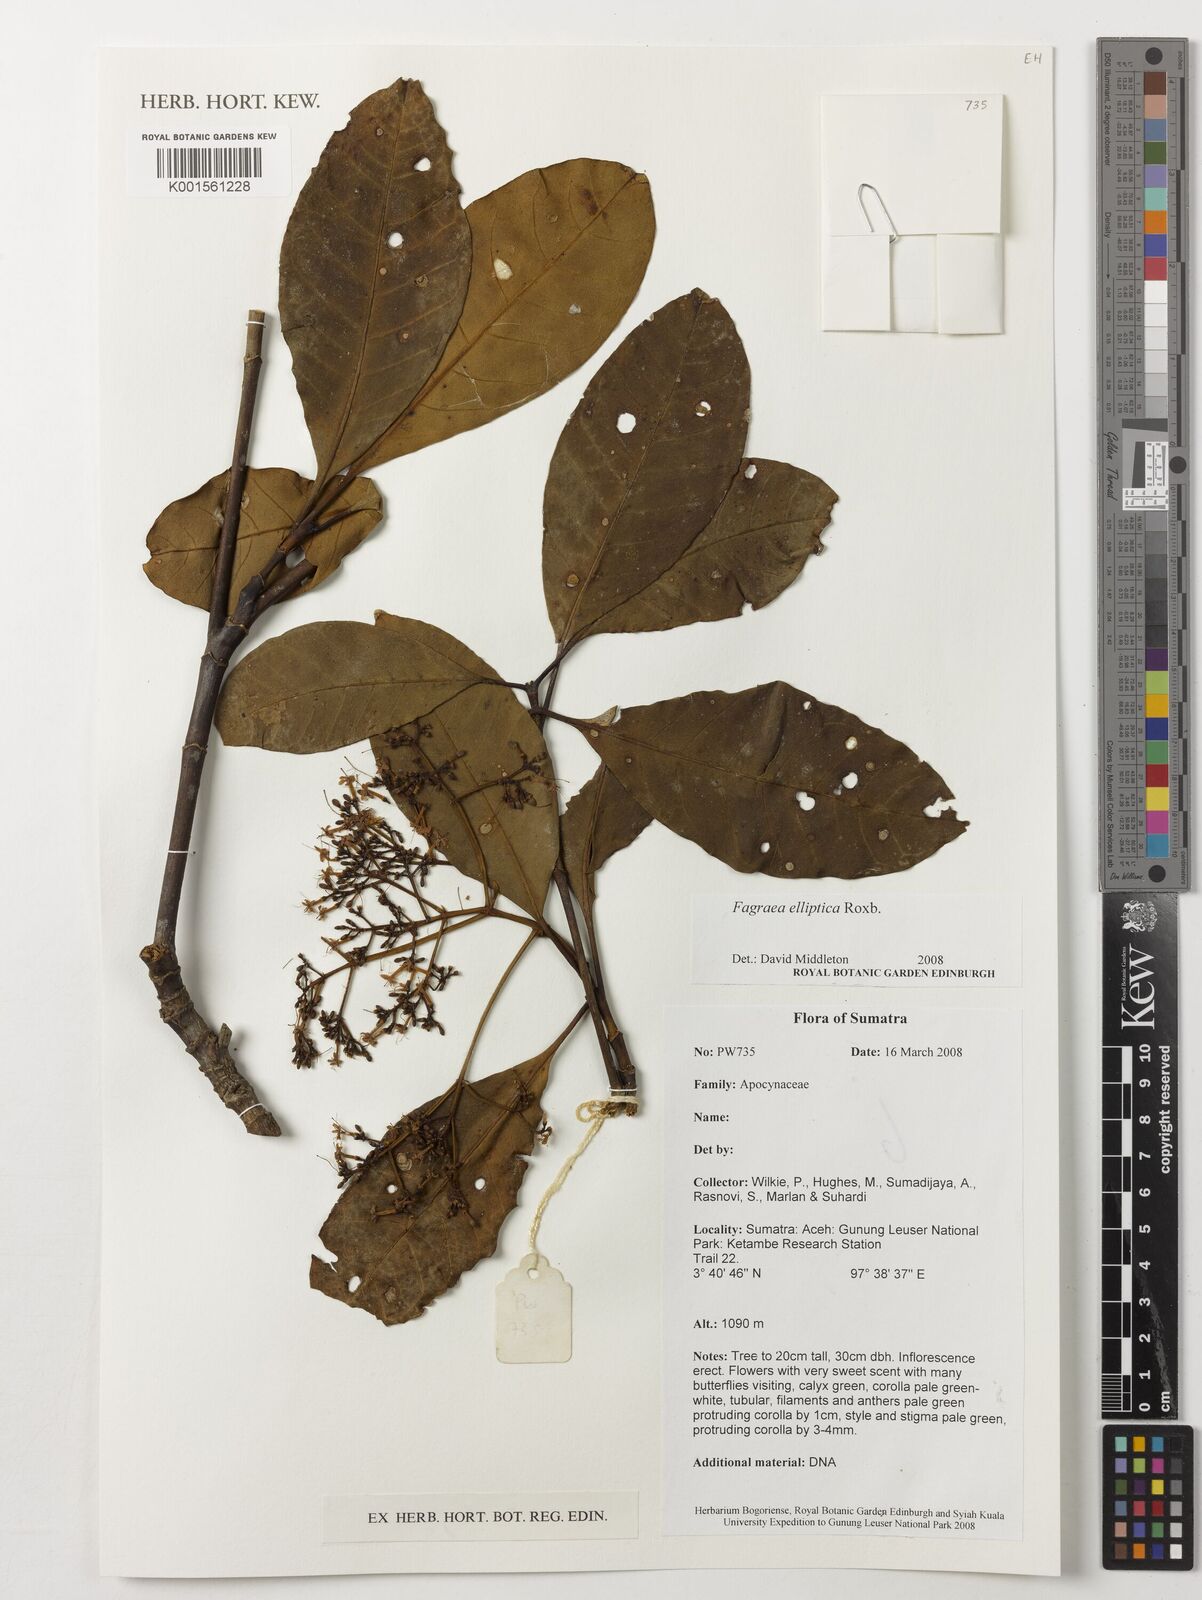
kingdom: Plantae
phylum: Tracheophyta
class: Magnoliopsida
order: Gentianales
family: Gentianaceae
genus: Picrophloeus
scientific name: Picrophloeus javanensis
